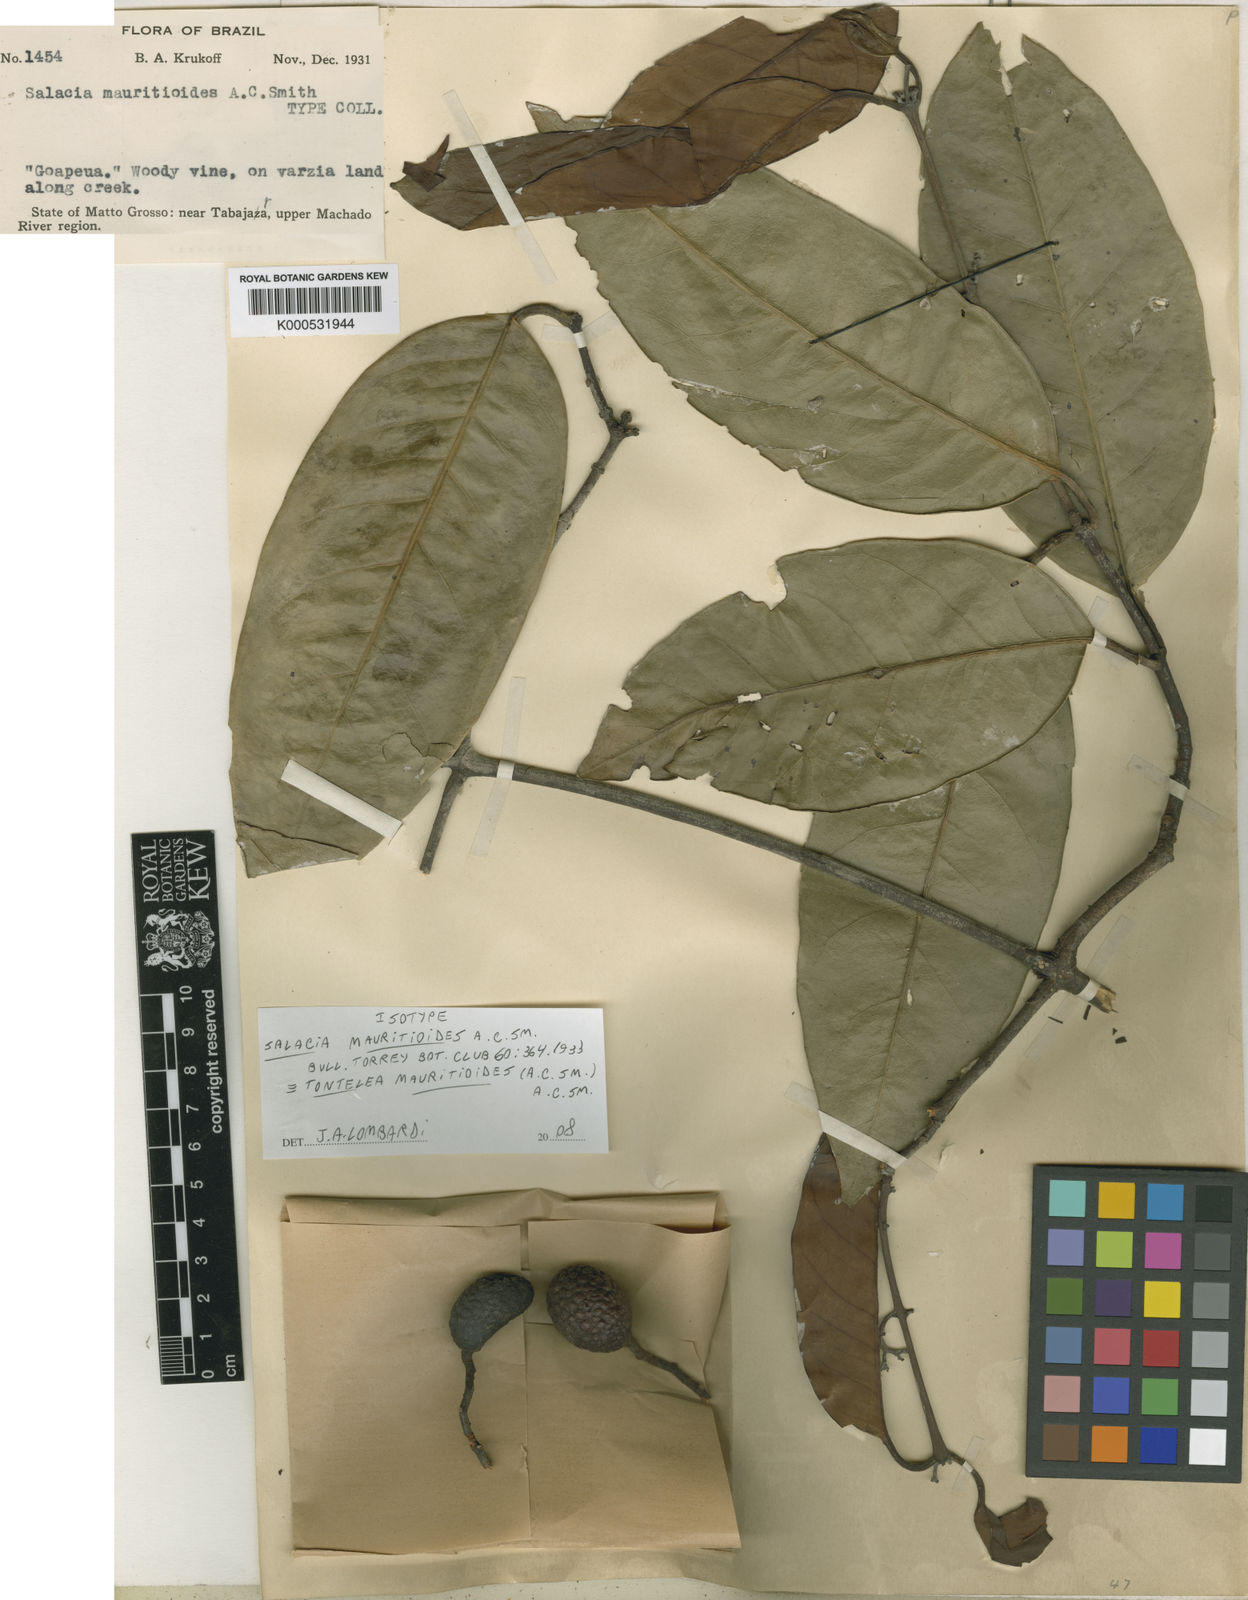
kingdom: Plantae
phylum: Tracheophyta
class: Magnoliopsida
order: Celastrales
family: Celastraceae
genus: Tontelea
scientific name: Tontelea mauritioides
